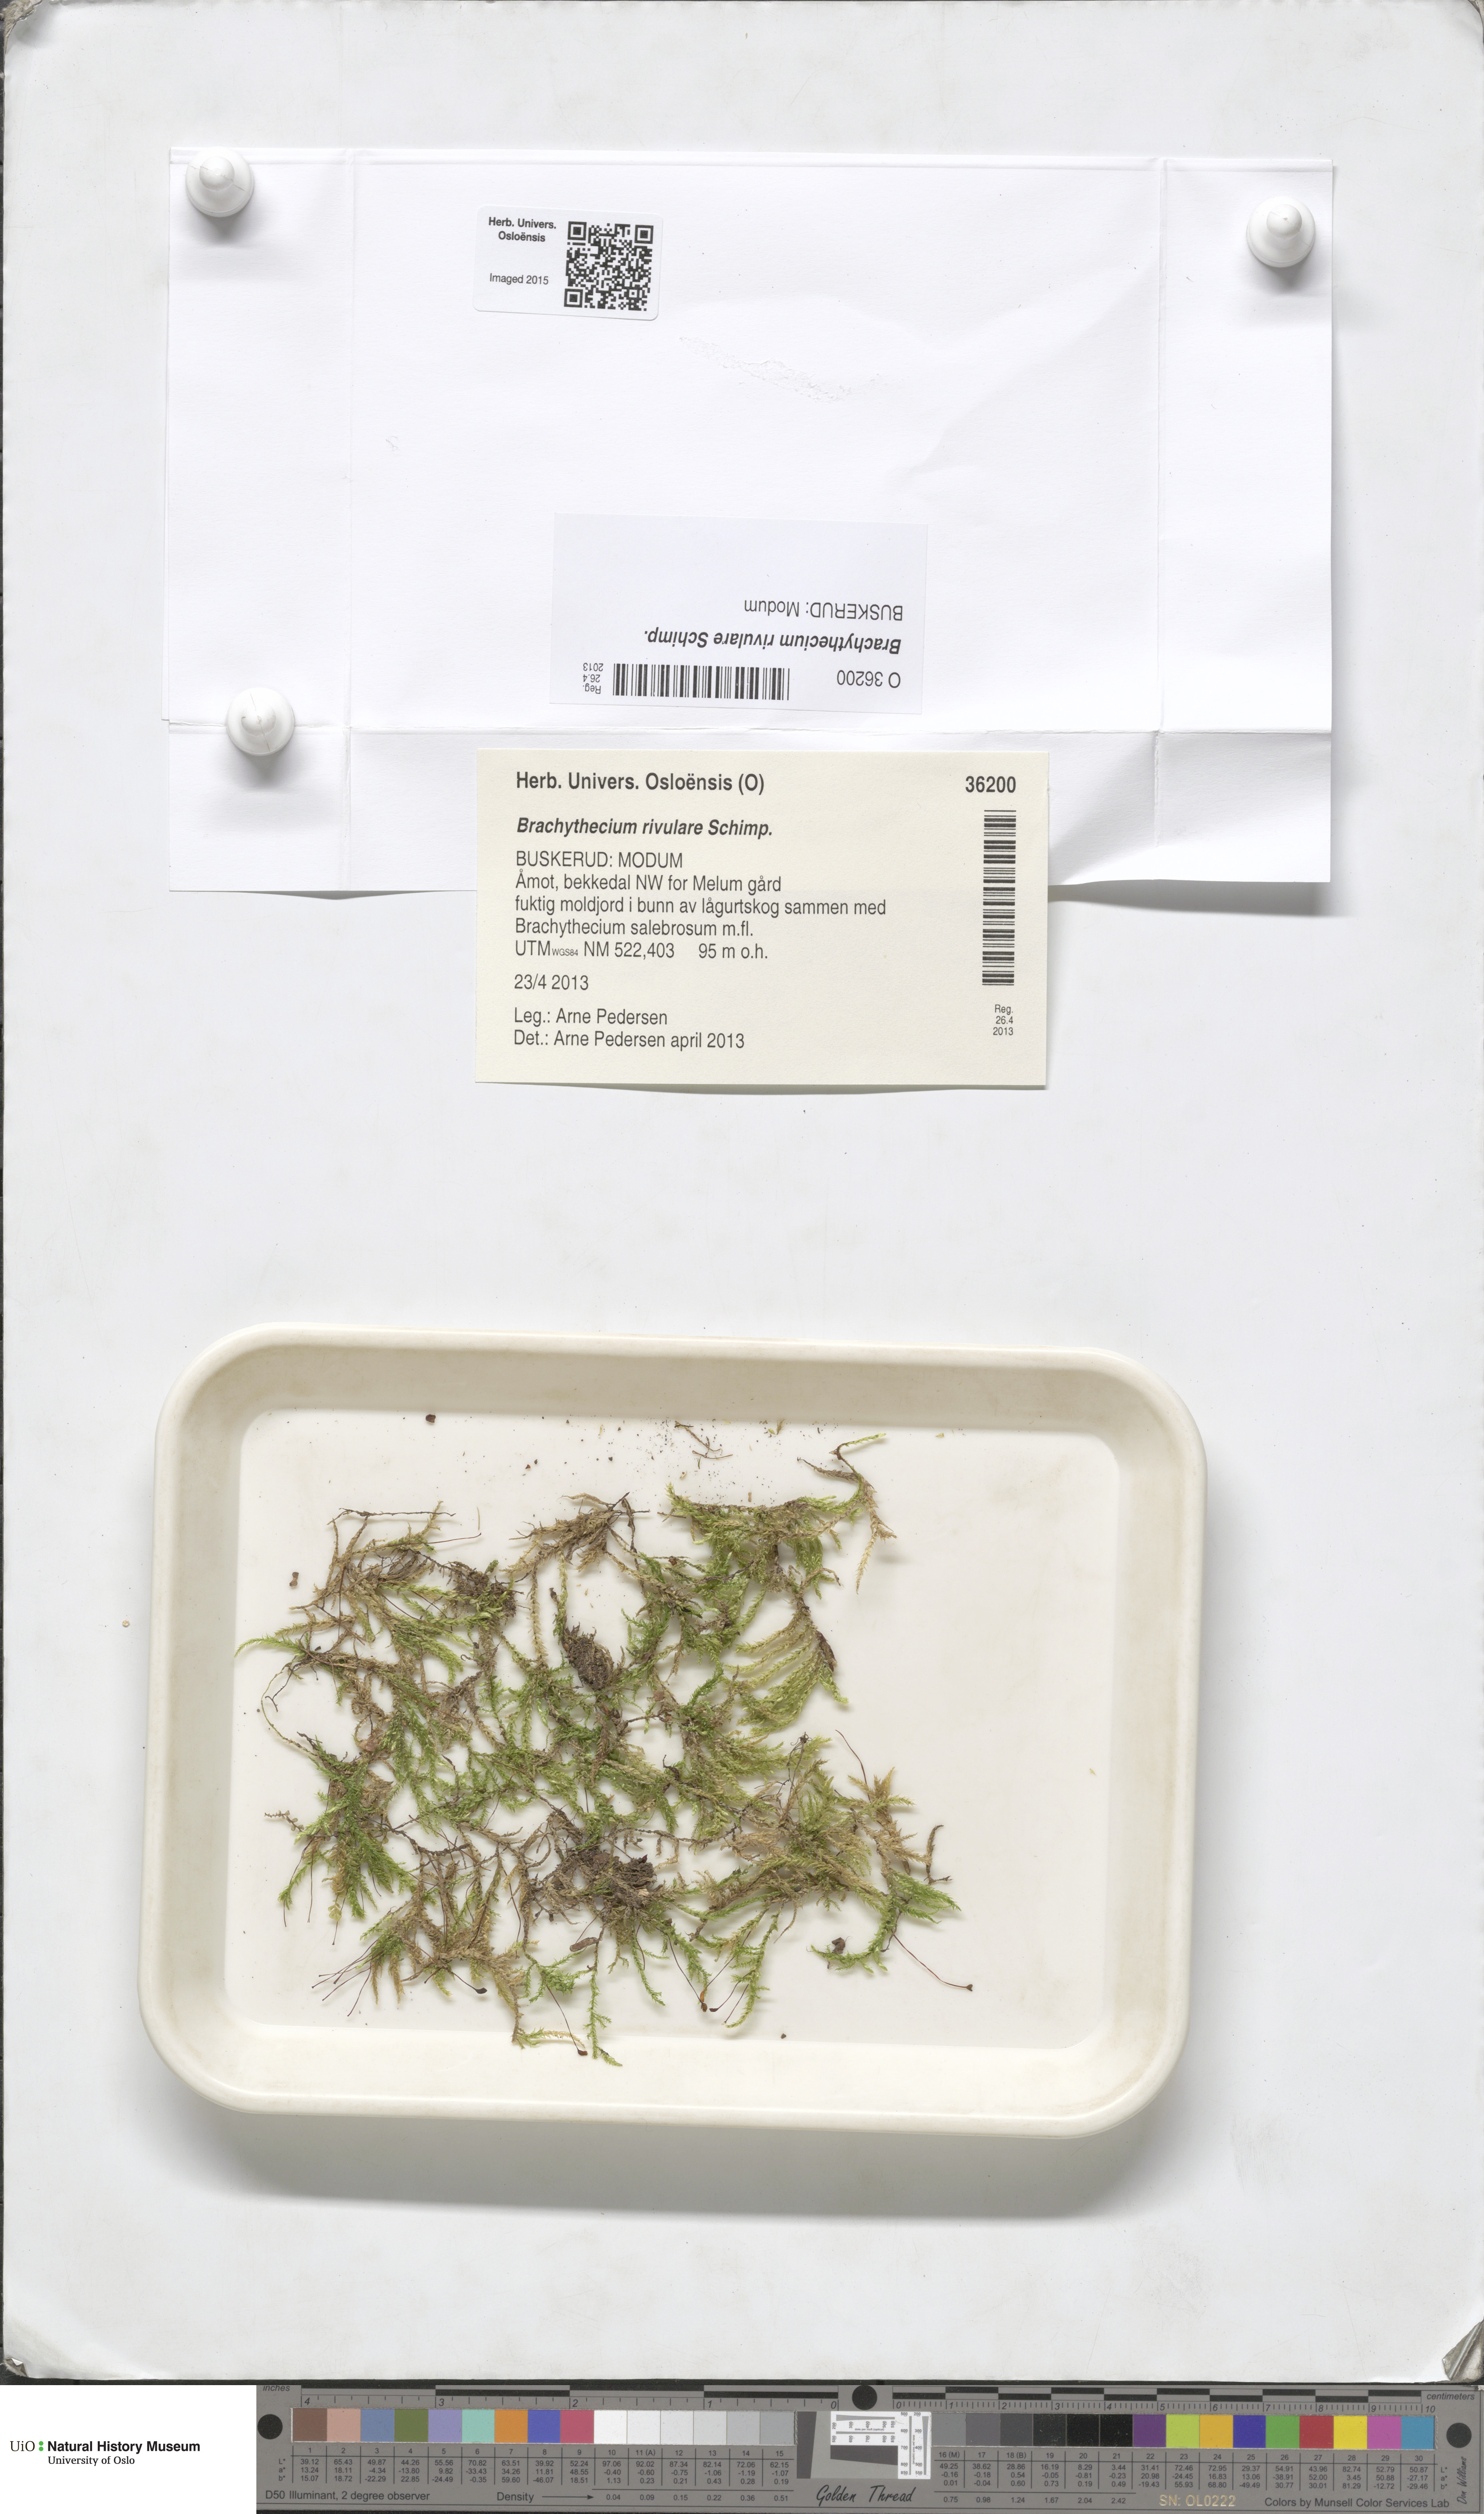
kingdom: Plantae
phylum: Bryophyta
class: Bryopsida
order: Hypnales
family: Brachytheciaceae
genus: Brachythecium
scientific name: Brachythecium rivulare
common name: River ragged moss
